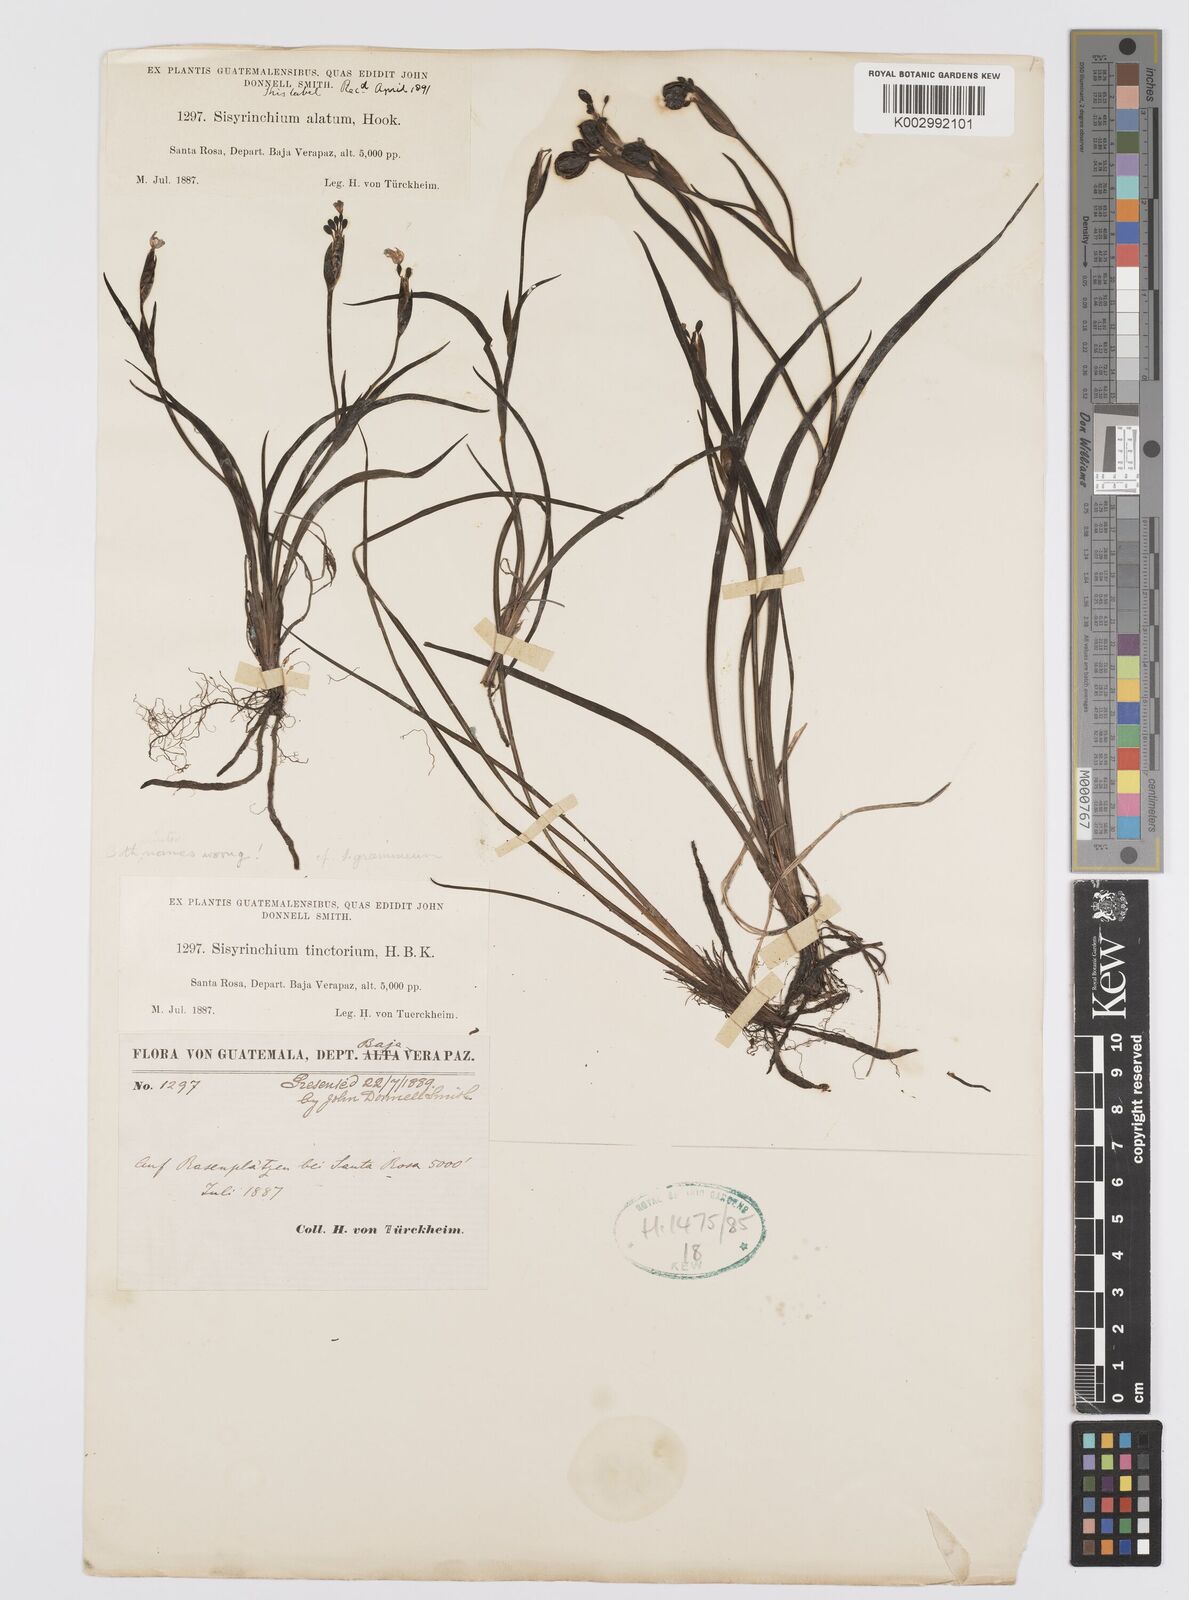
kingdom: Plantae
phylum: Tracheophyta
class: Liliopsida
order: Asparagales
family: Iridaceae
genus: Sisyrinchium
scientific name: Sisyrinchium tinctorium
